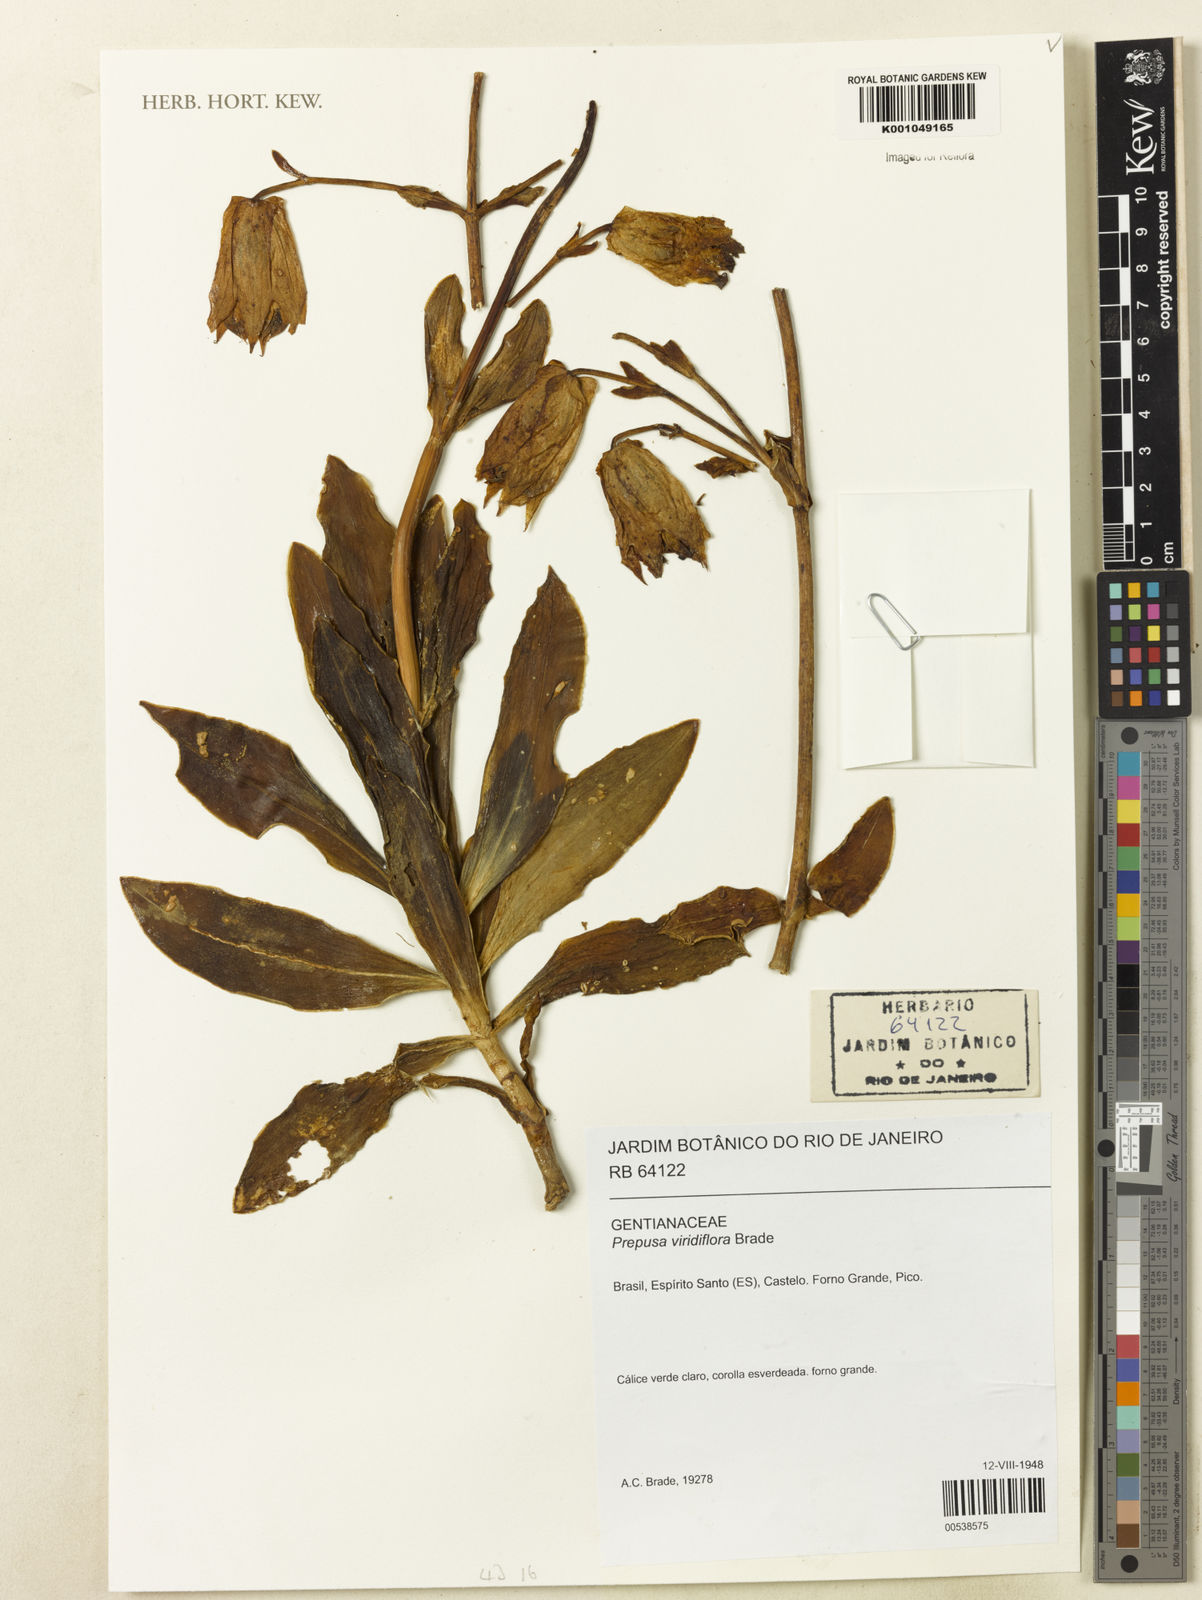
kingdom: Plantae
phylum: Tracheophyta
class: Magnoliopsida
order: Gentianales
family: Gentianaceae
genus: Prepusa
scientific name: Prepusa viridiflora
